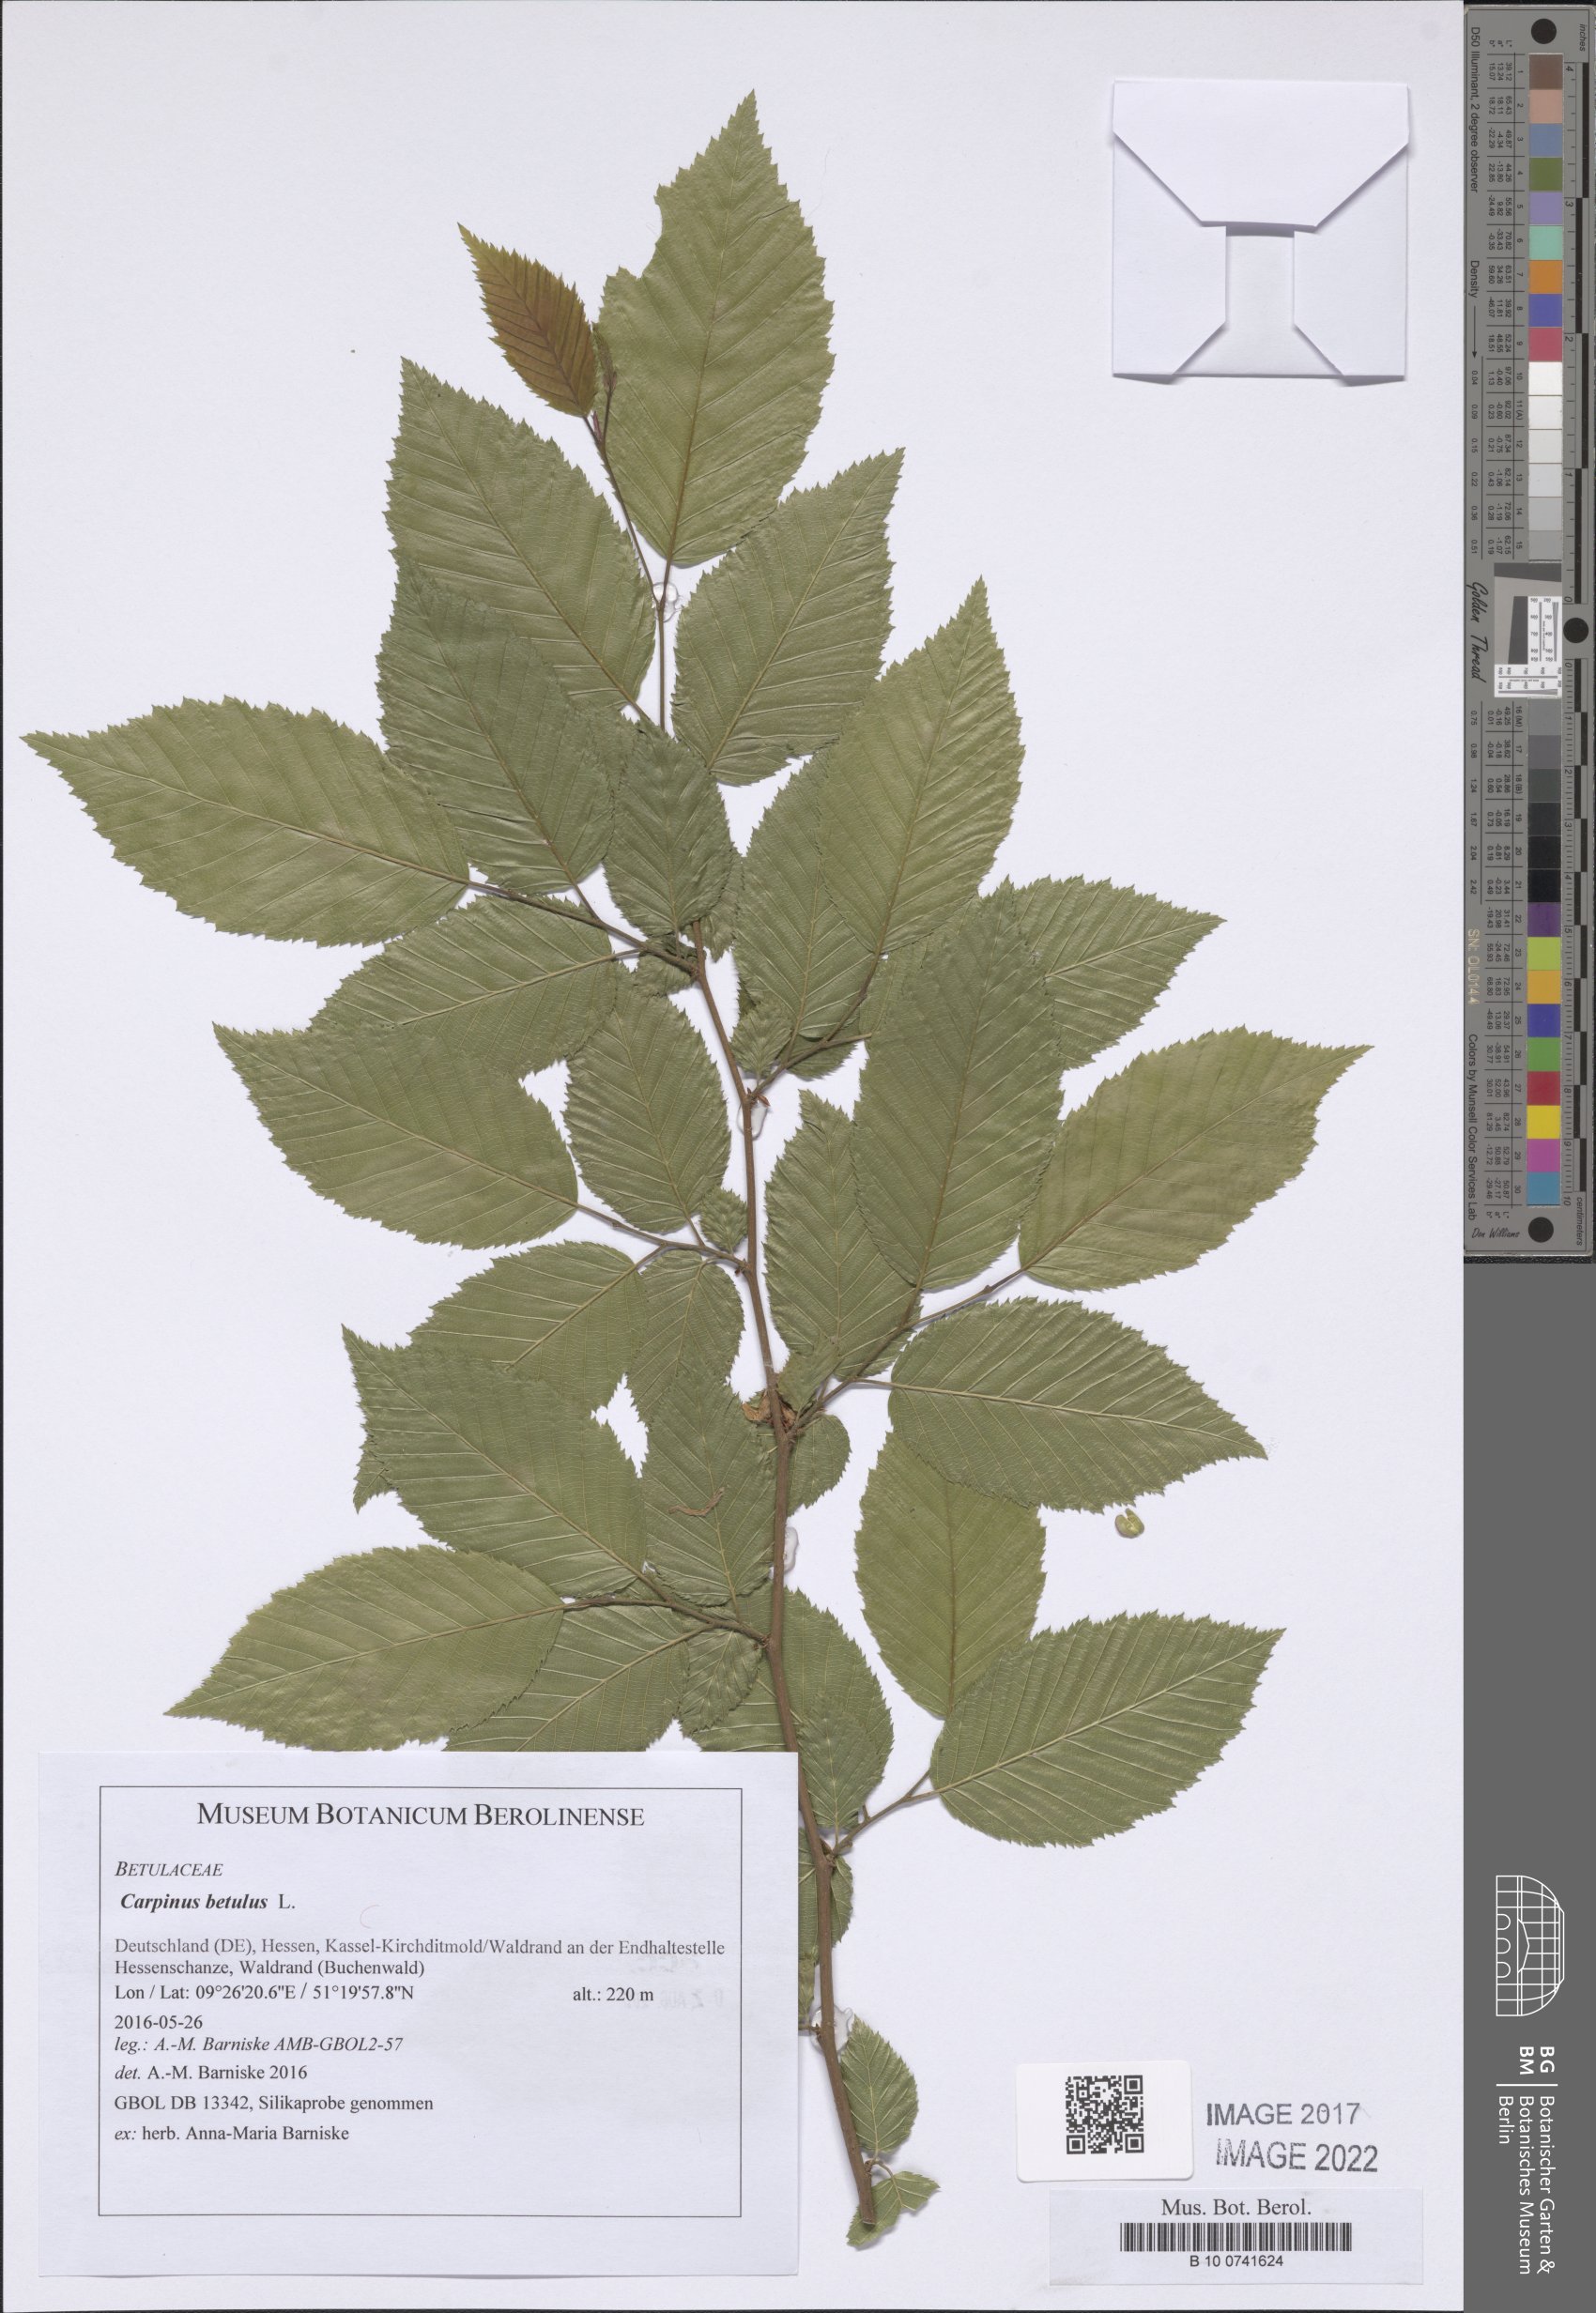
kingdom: Plantae
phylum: Tracheophyta
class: Magnoliopsida
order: Fagales
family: Betulaceae
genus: Carpinus
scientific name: Carpinus betulus
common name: Hornbeam
